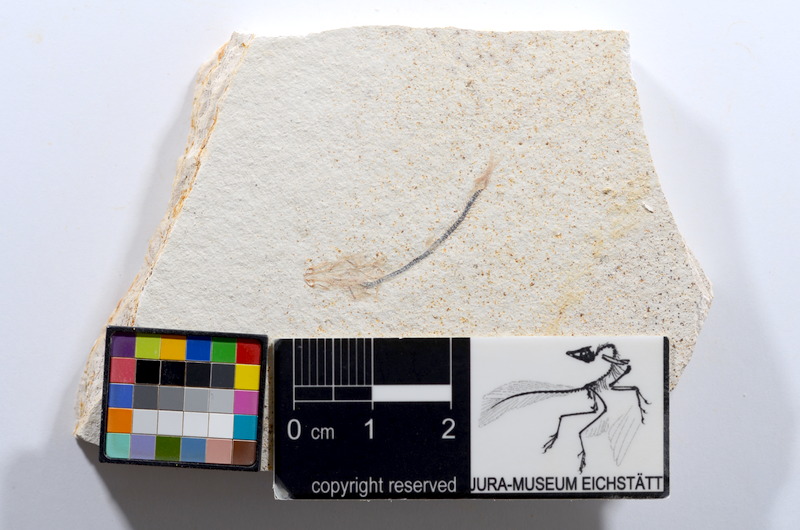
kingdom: Animalia
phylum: Chordata
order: Salmoniformes
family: Orthogonikleithridae
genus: Orthogonikleithrus
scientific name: Orthogonikleithrus hoelli
